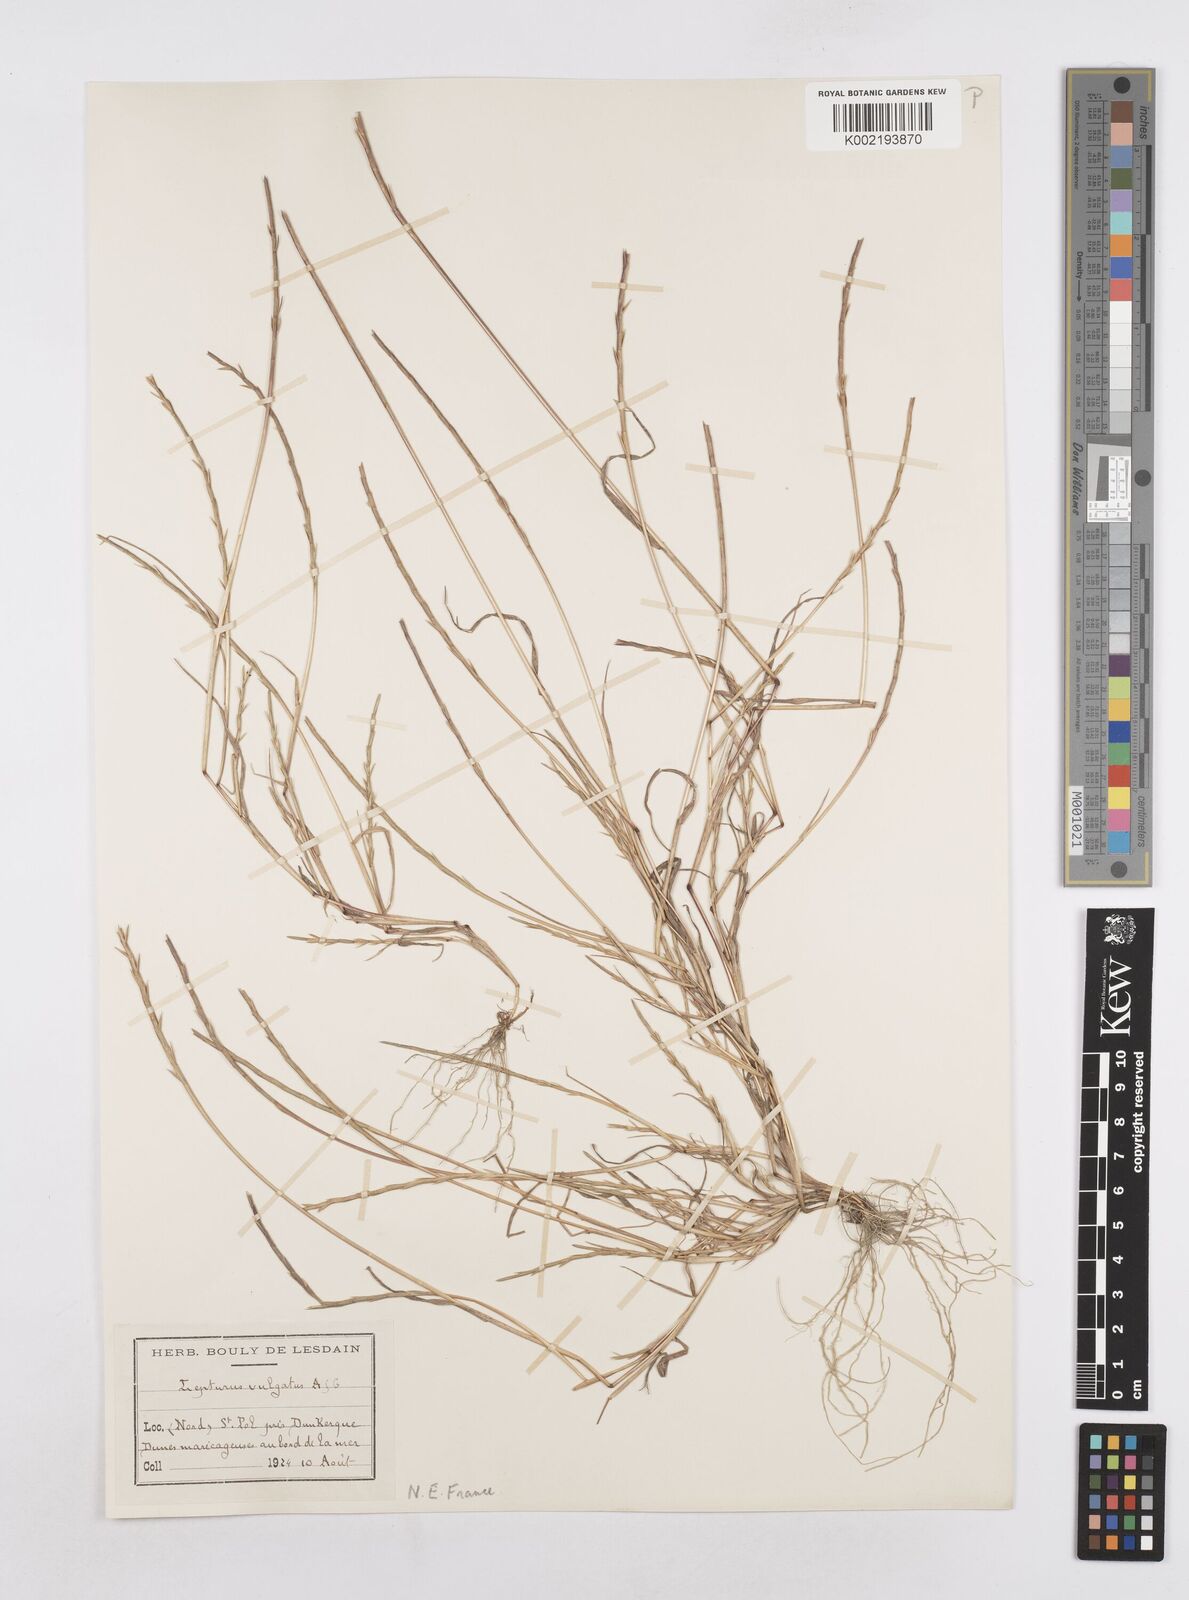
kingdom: Plantae
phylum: Tracheophyta
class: Liliopsida
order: Poales
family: Poaceae
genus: Parapholis
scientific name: Parapholis strigosa
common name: Hard-grass
